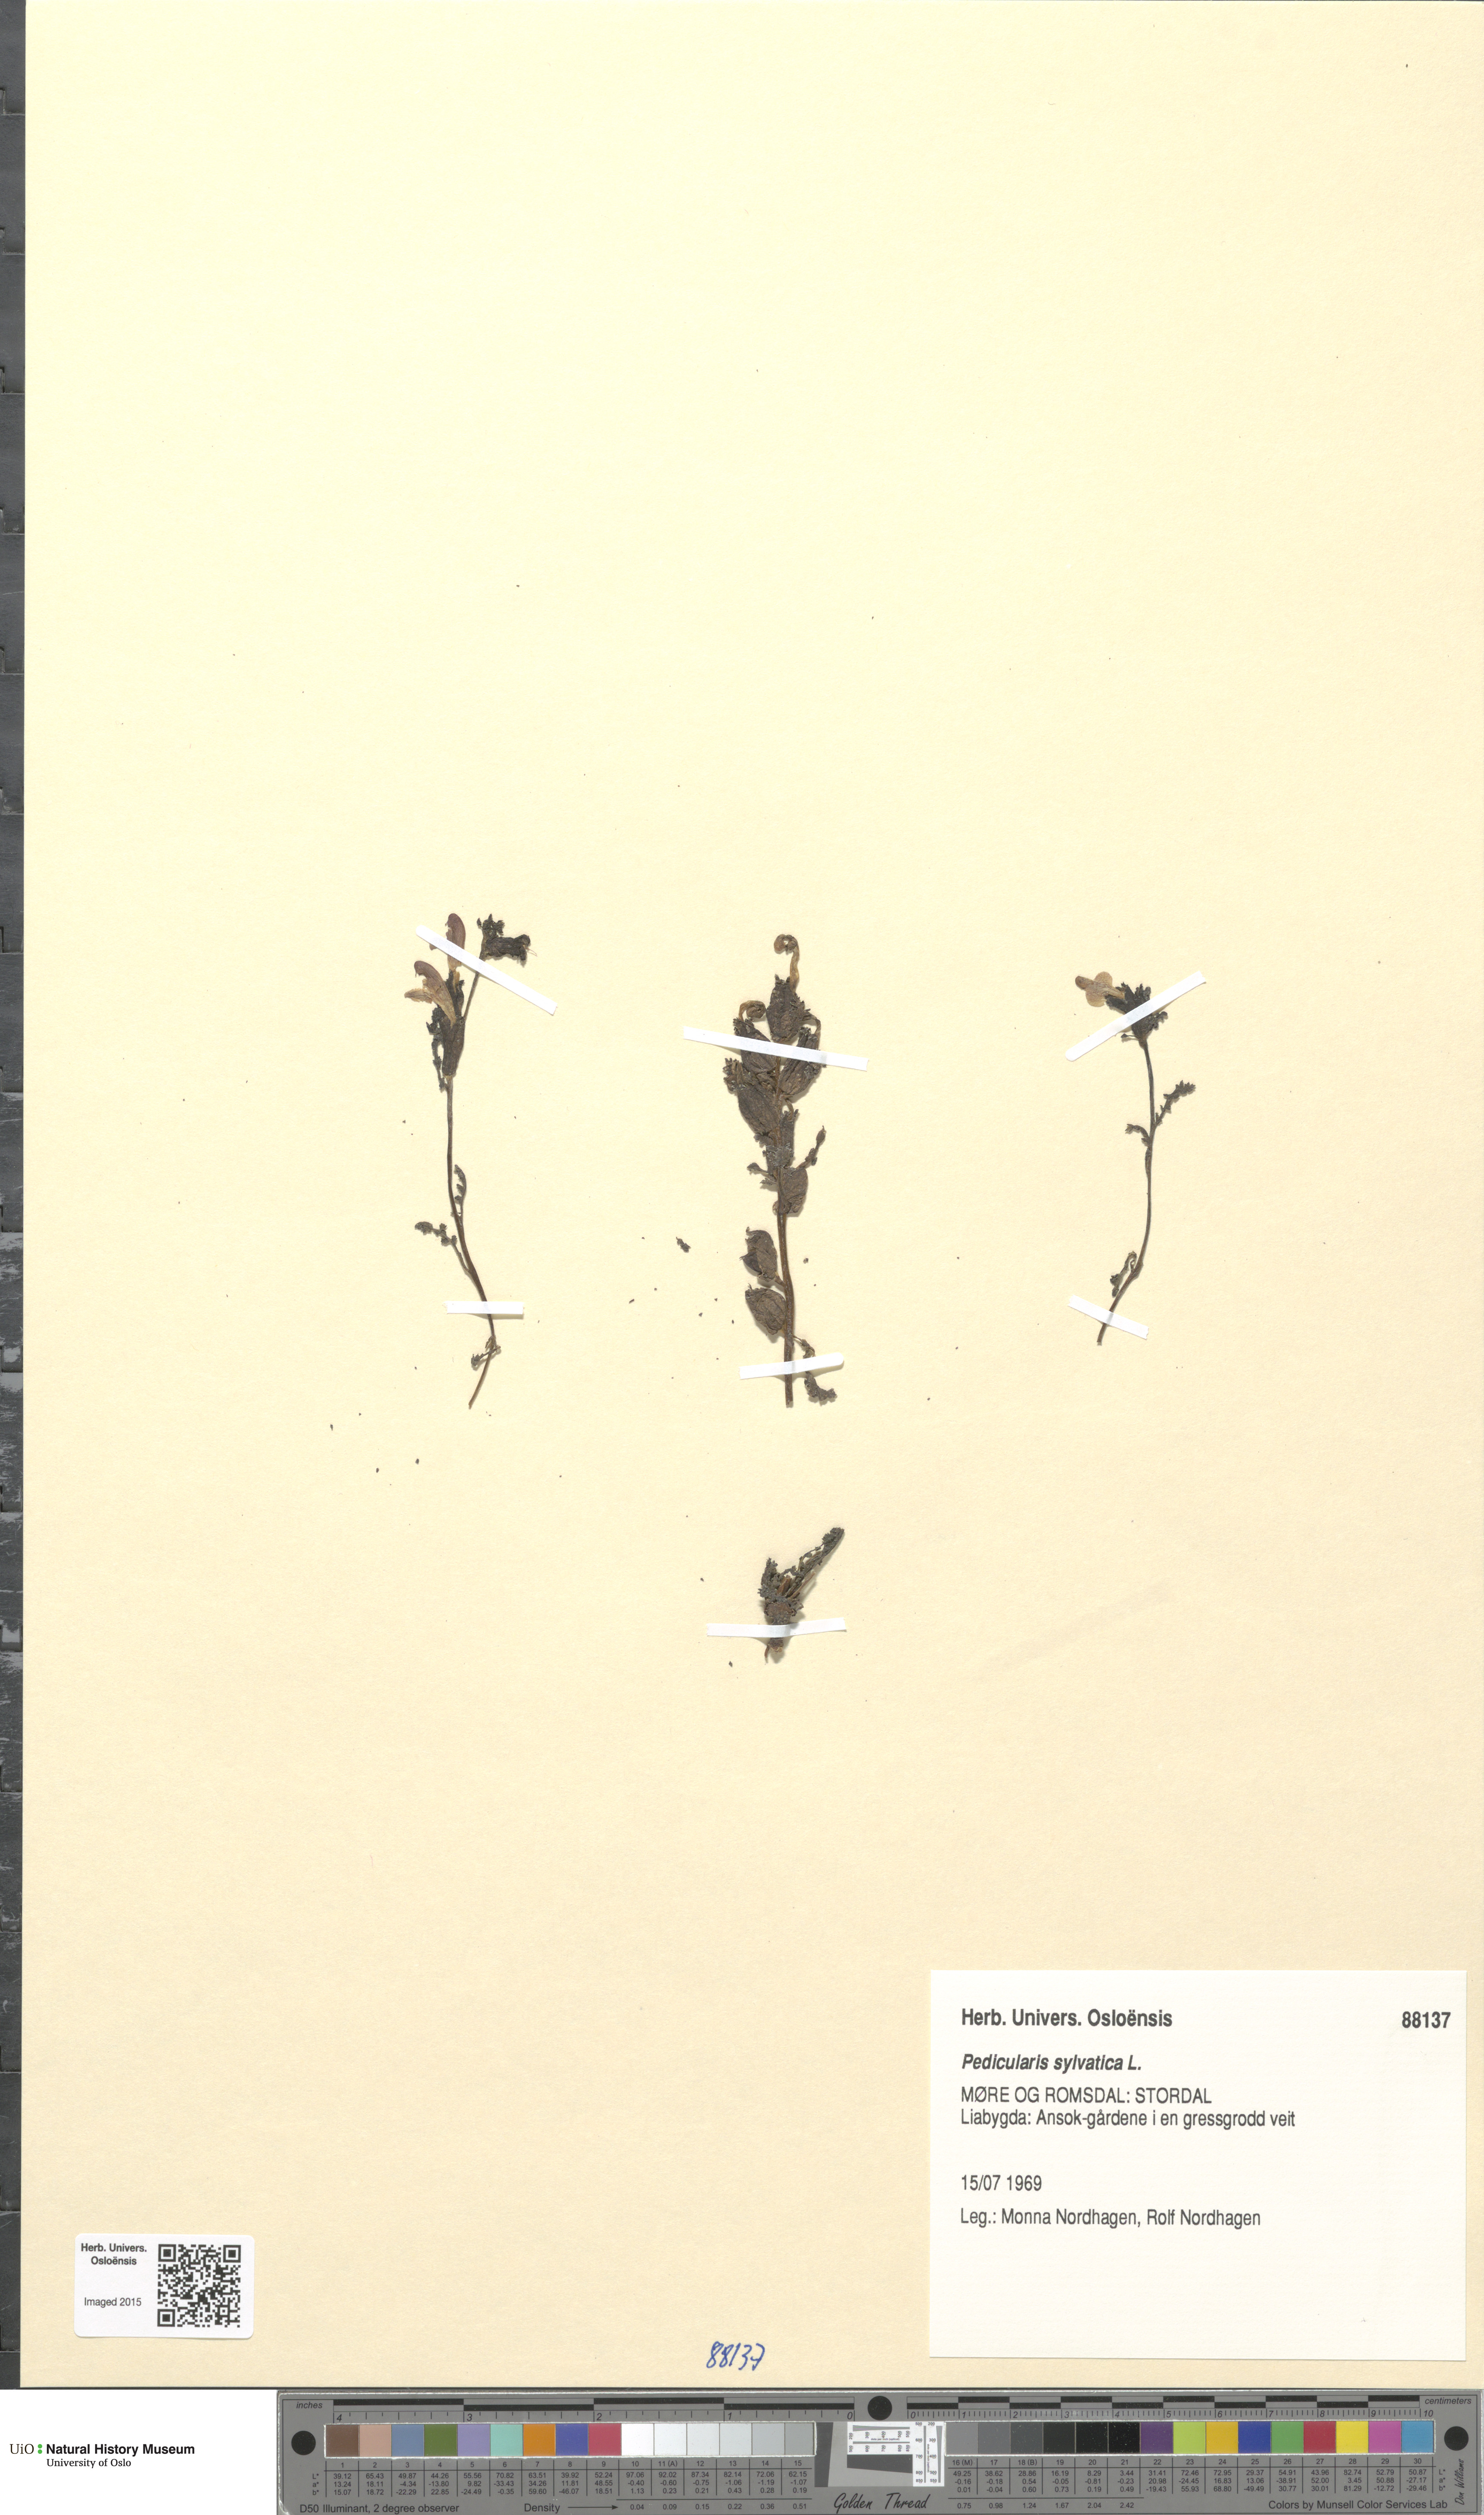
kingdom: Plantae
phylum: Tracheophyta
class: Magnoliopsida
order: Lamiales
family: Orobanchaceae
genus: Pedicularis
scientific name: Pedicularis sylvatica
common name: Lousewort
